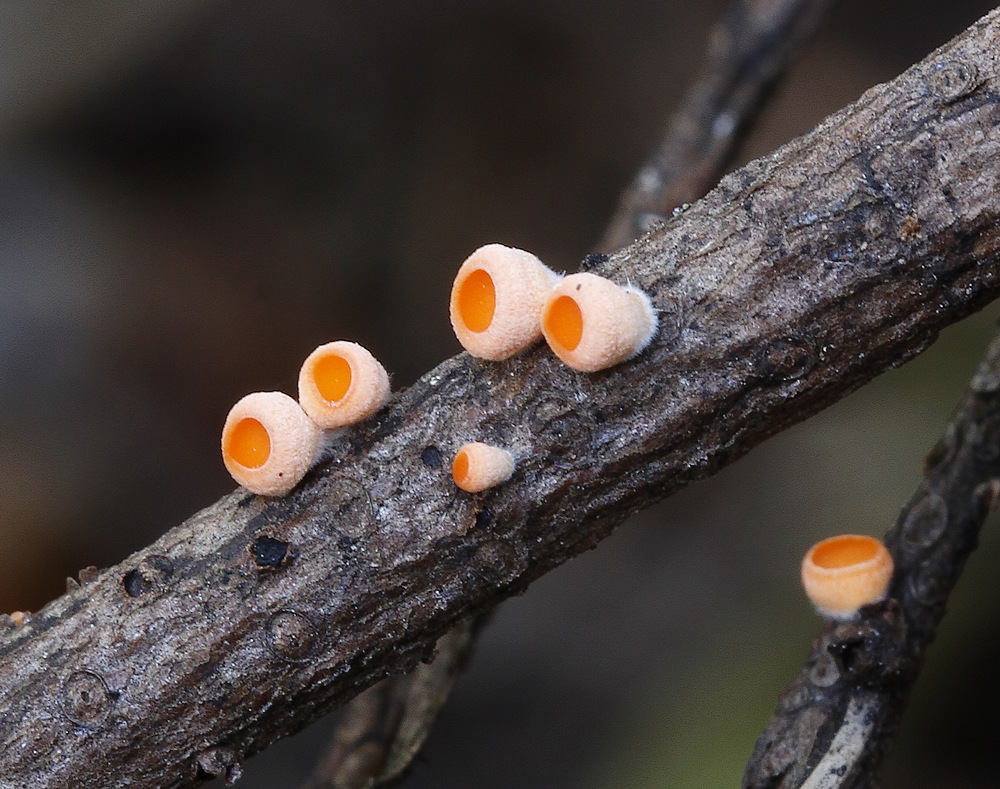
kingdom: Fungi
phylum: Ascomycota
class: Pezizomycetes
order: Pezizales
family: Sarcoscyphaceae
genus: Pithya
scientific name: Pithya vulgaris
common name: stor dukatbæger
